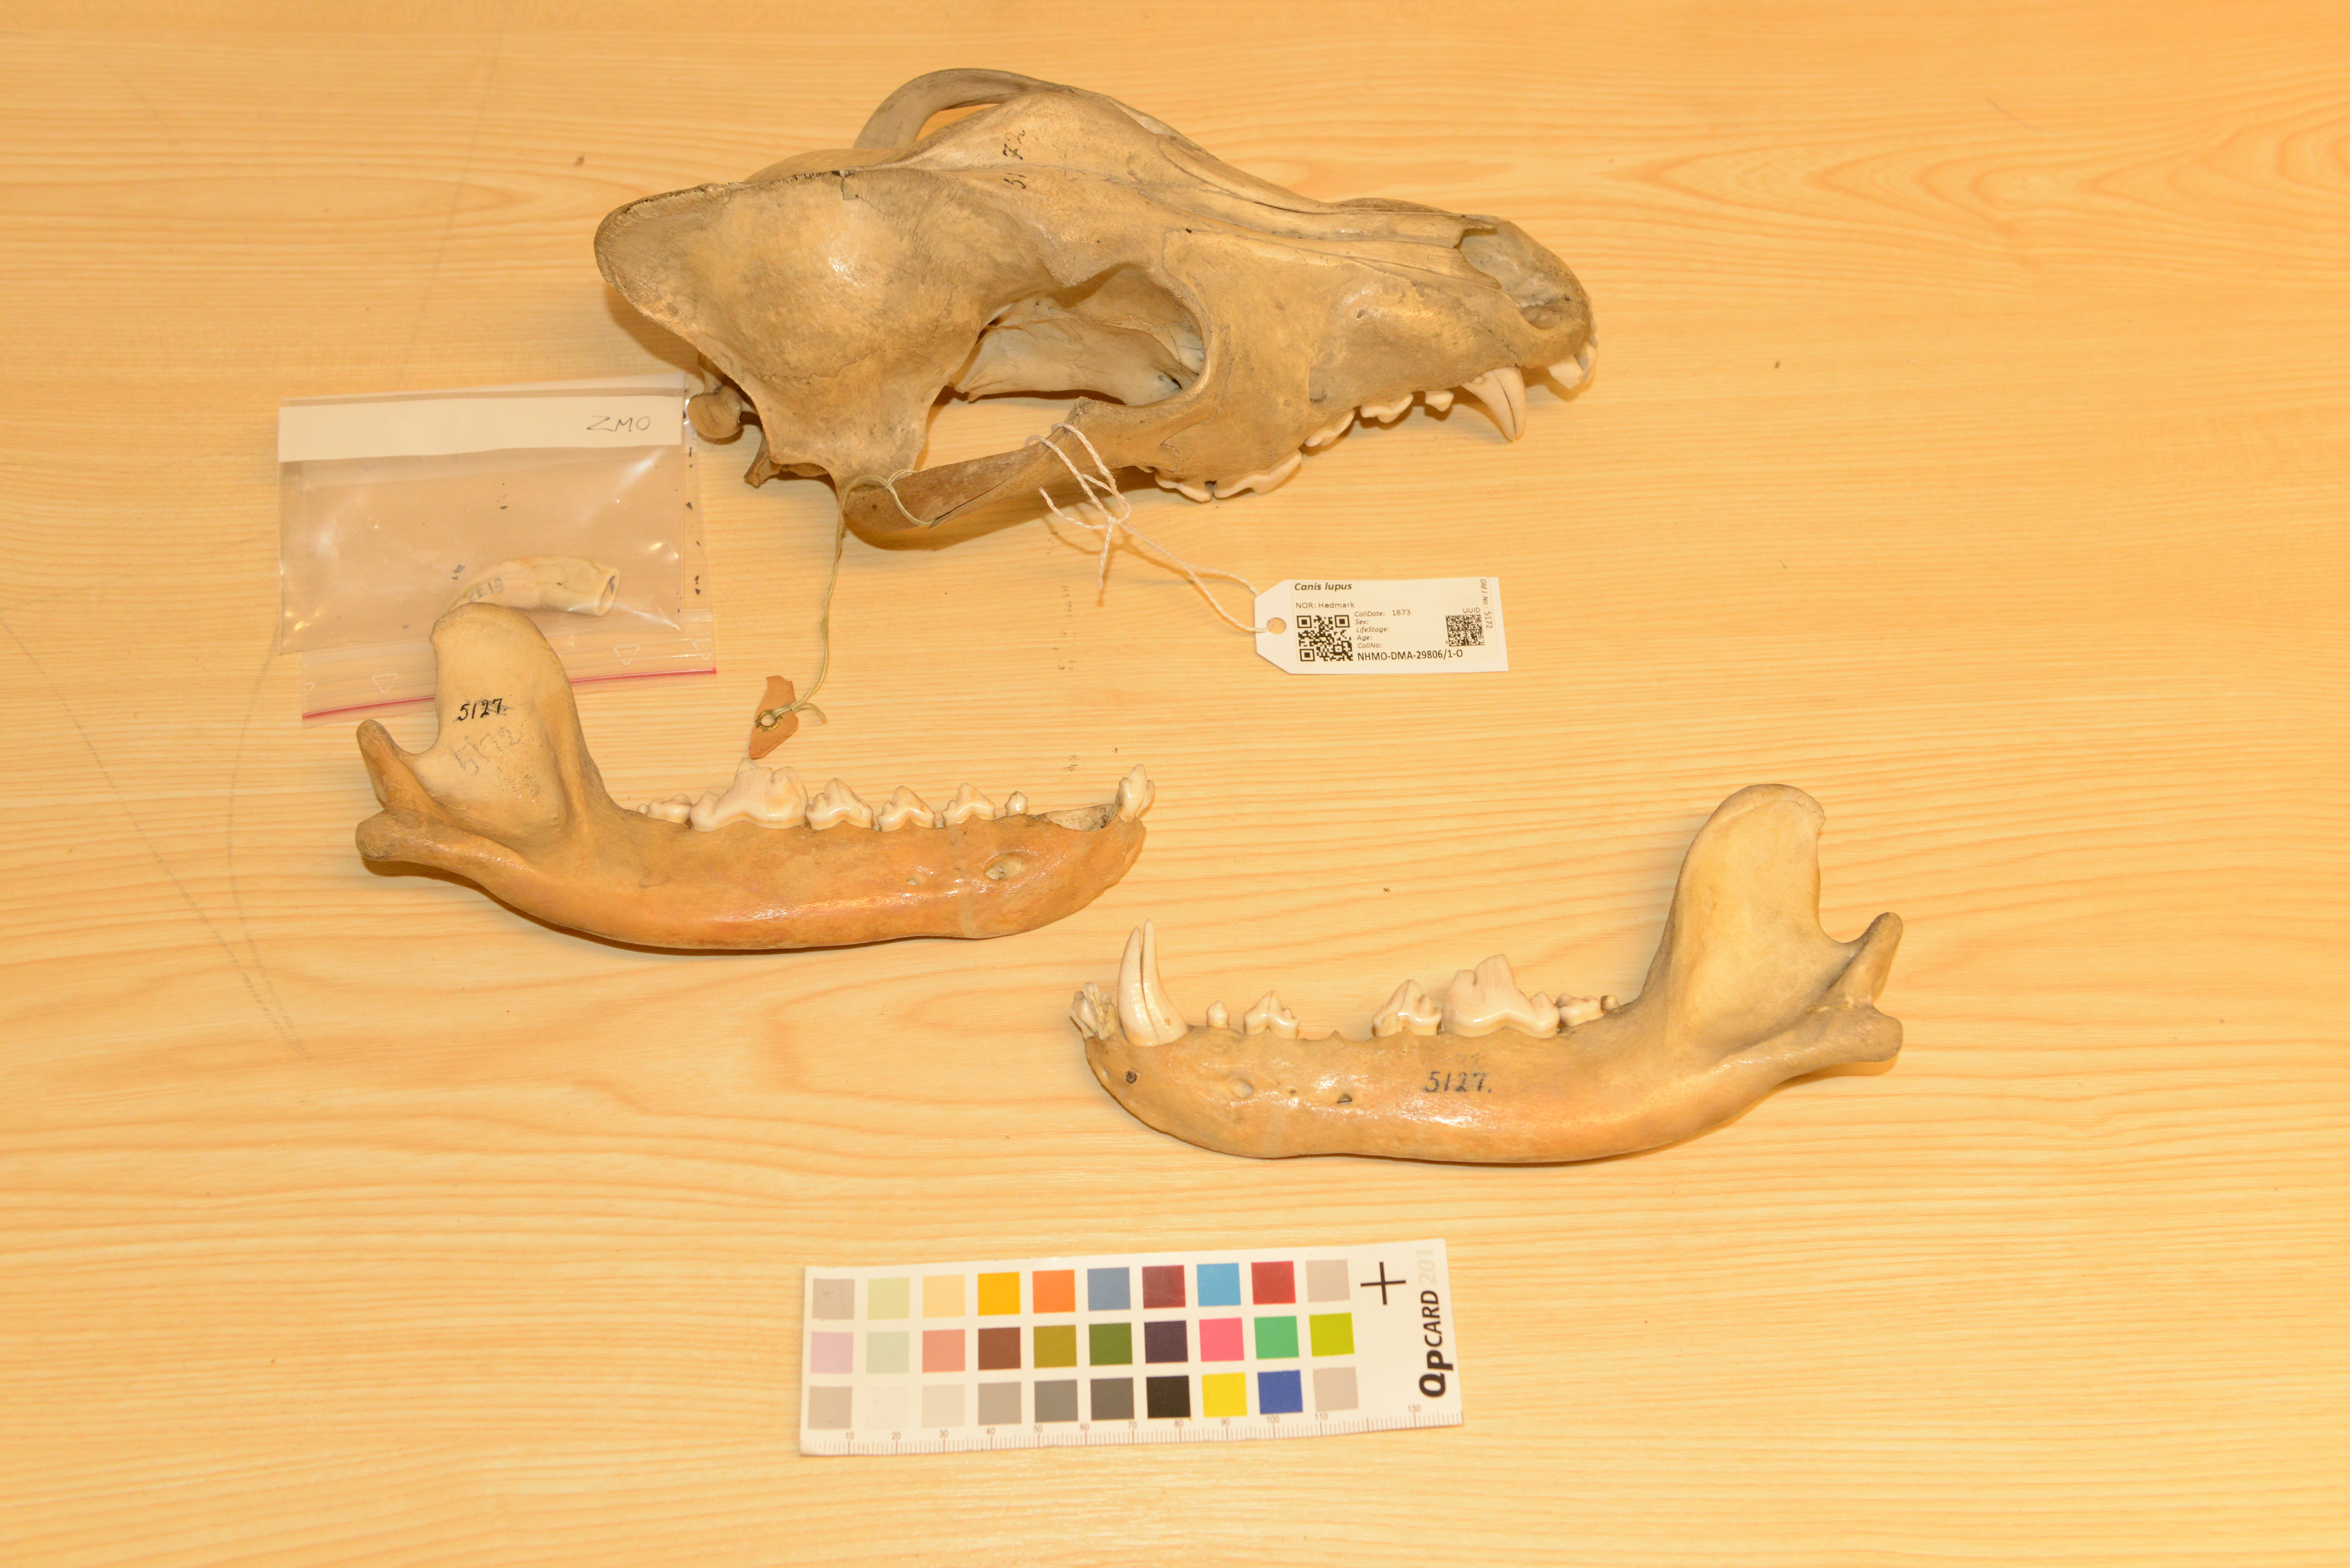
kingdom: Animalia
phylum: Chordata
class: Mammalia
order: Carnivora
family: Canidae
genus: Canis
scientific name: Canis lupus
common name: Gray wolf
